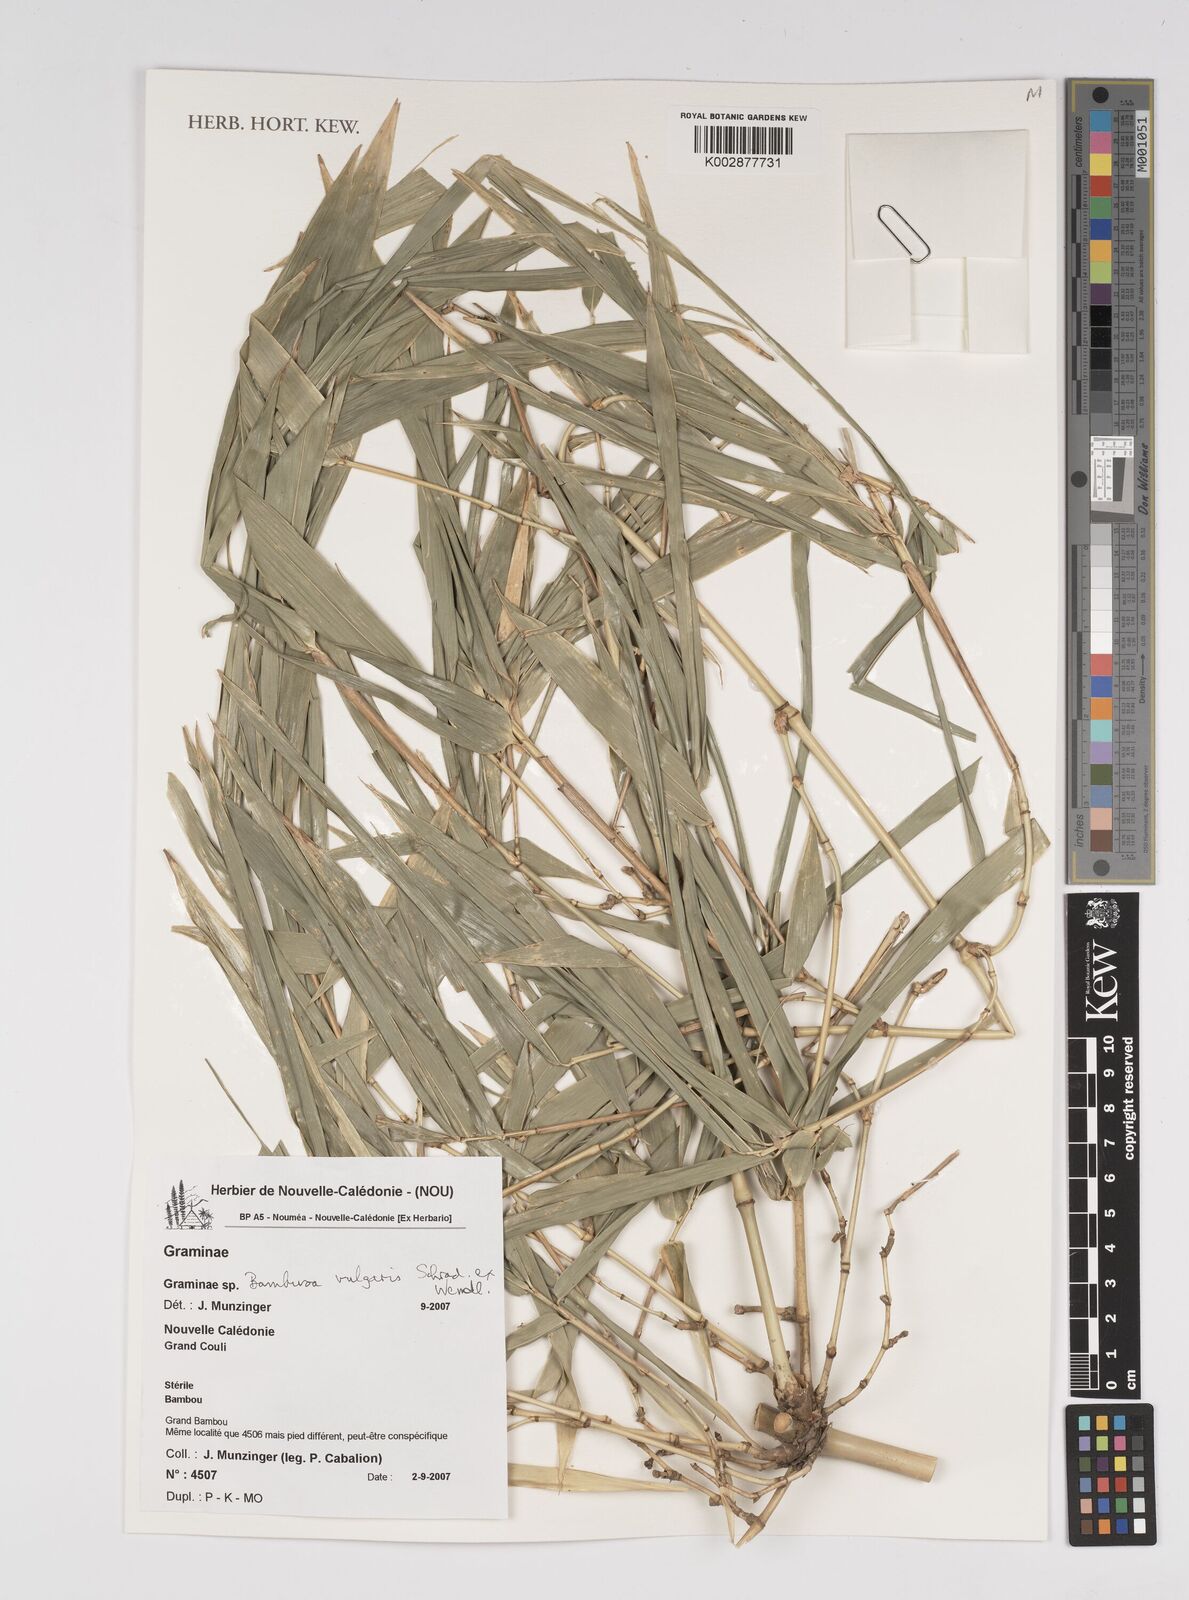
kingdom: Plantae
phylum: Tracheophyta
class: Liliopsida
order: Poales
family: Poaceae
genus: Bambusa
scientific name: Bambusa vulgaris
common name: Common bamboo
